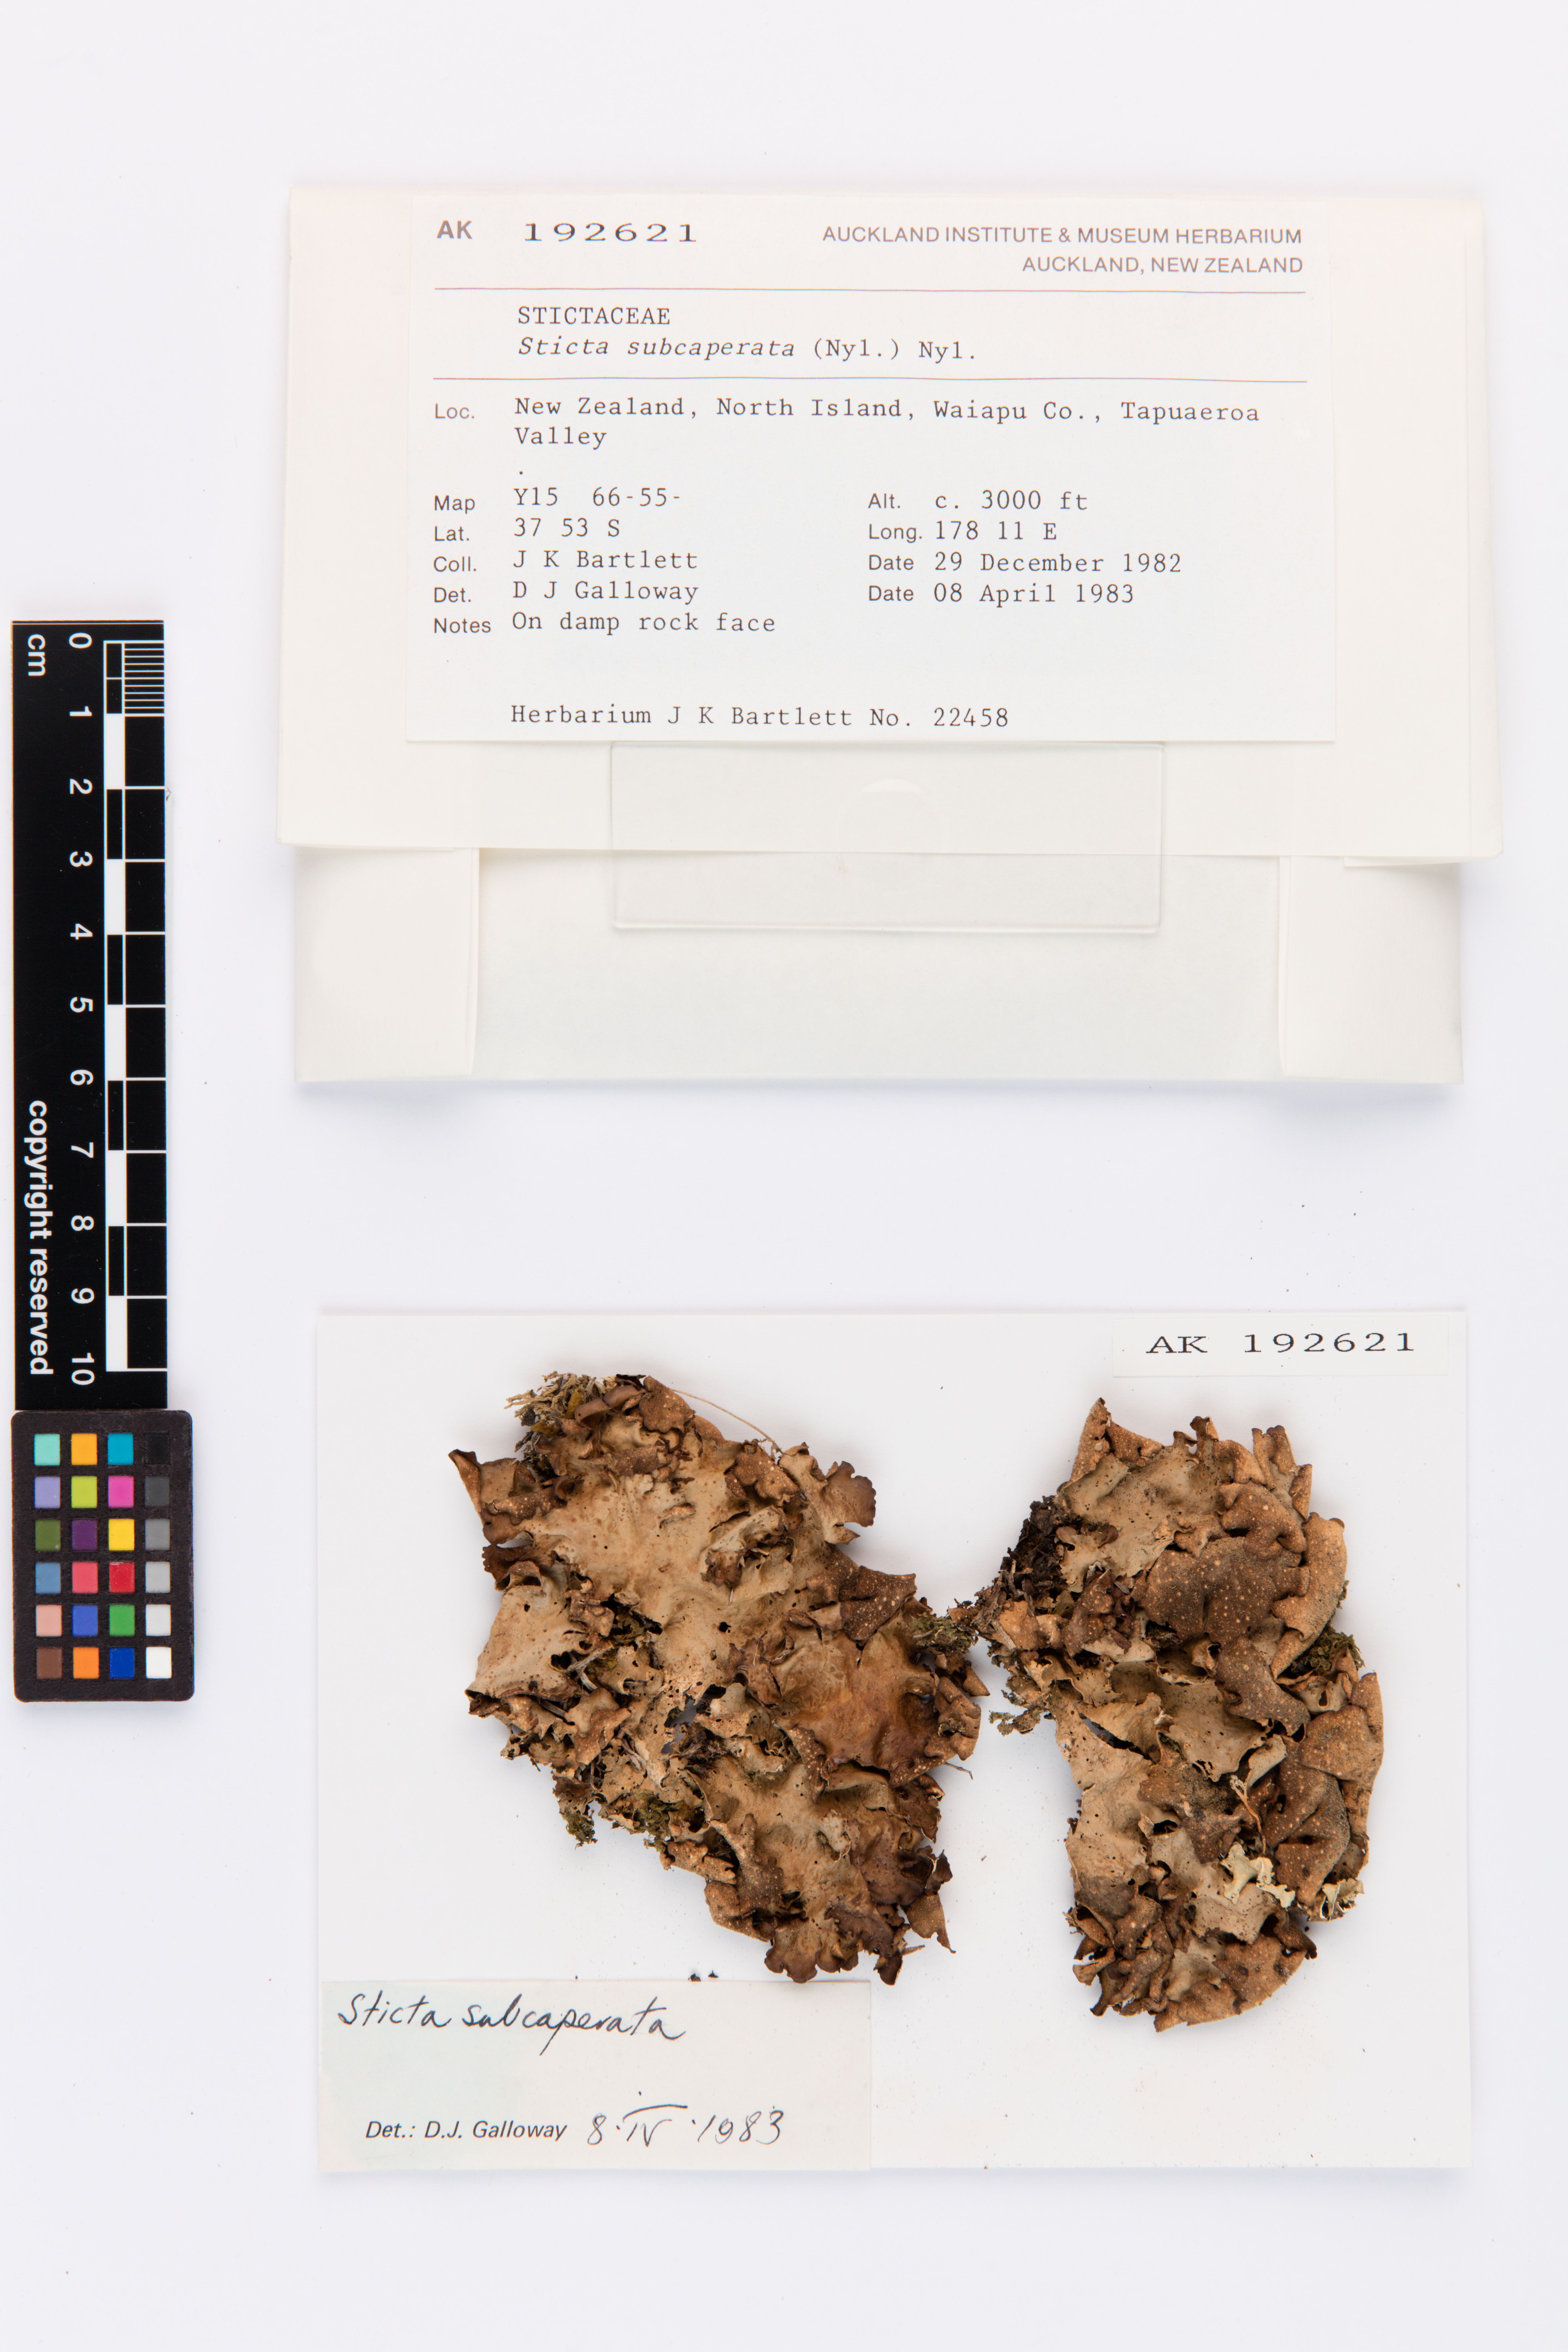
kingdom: Fungi
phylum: Ascomycota
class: Lecanoromycetes
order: Peltigerales
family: Lobariaceae
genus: Sticta
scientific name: Sticta subcaperata
